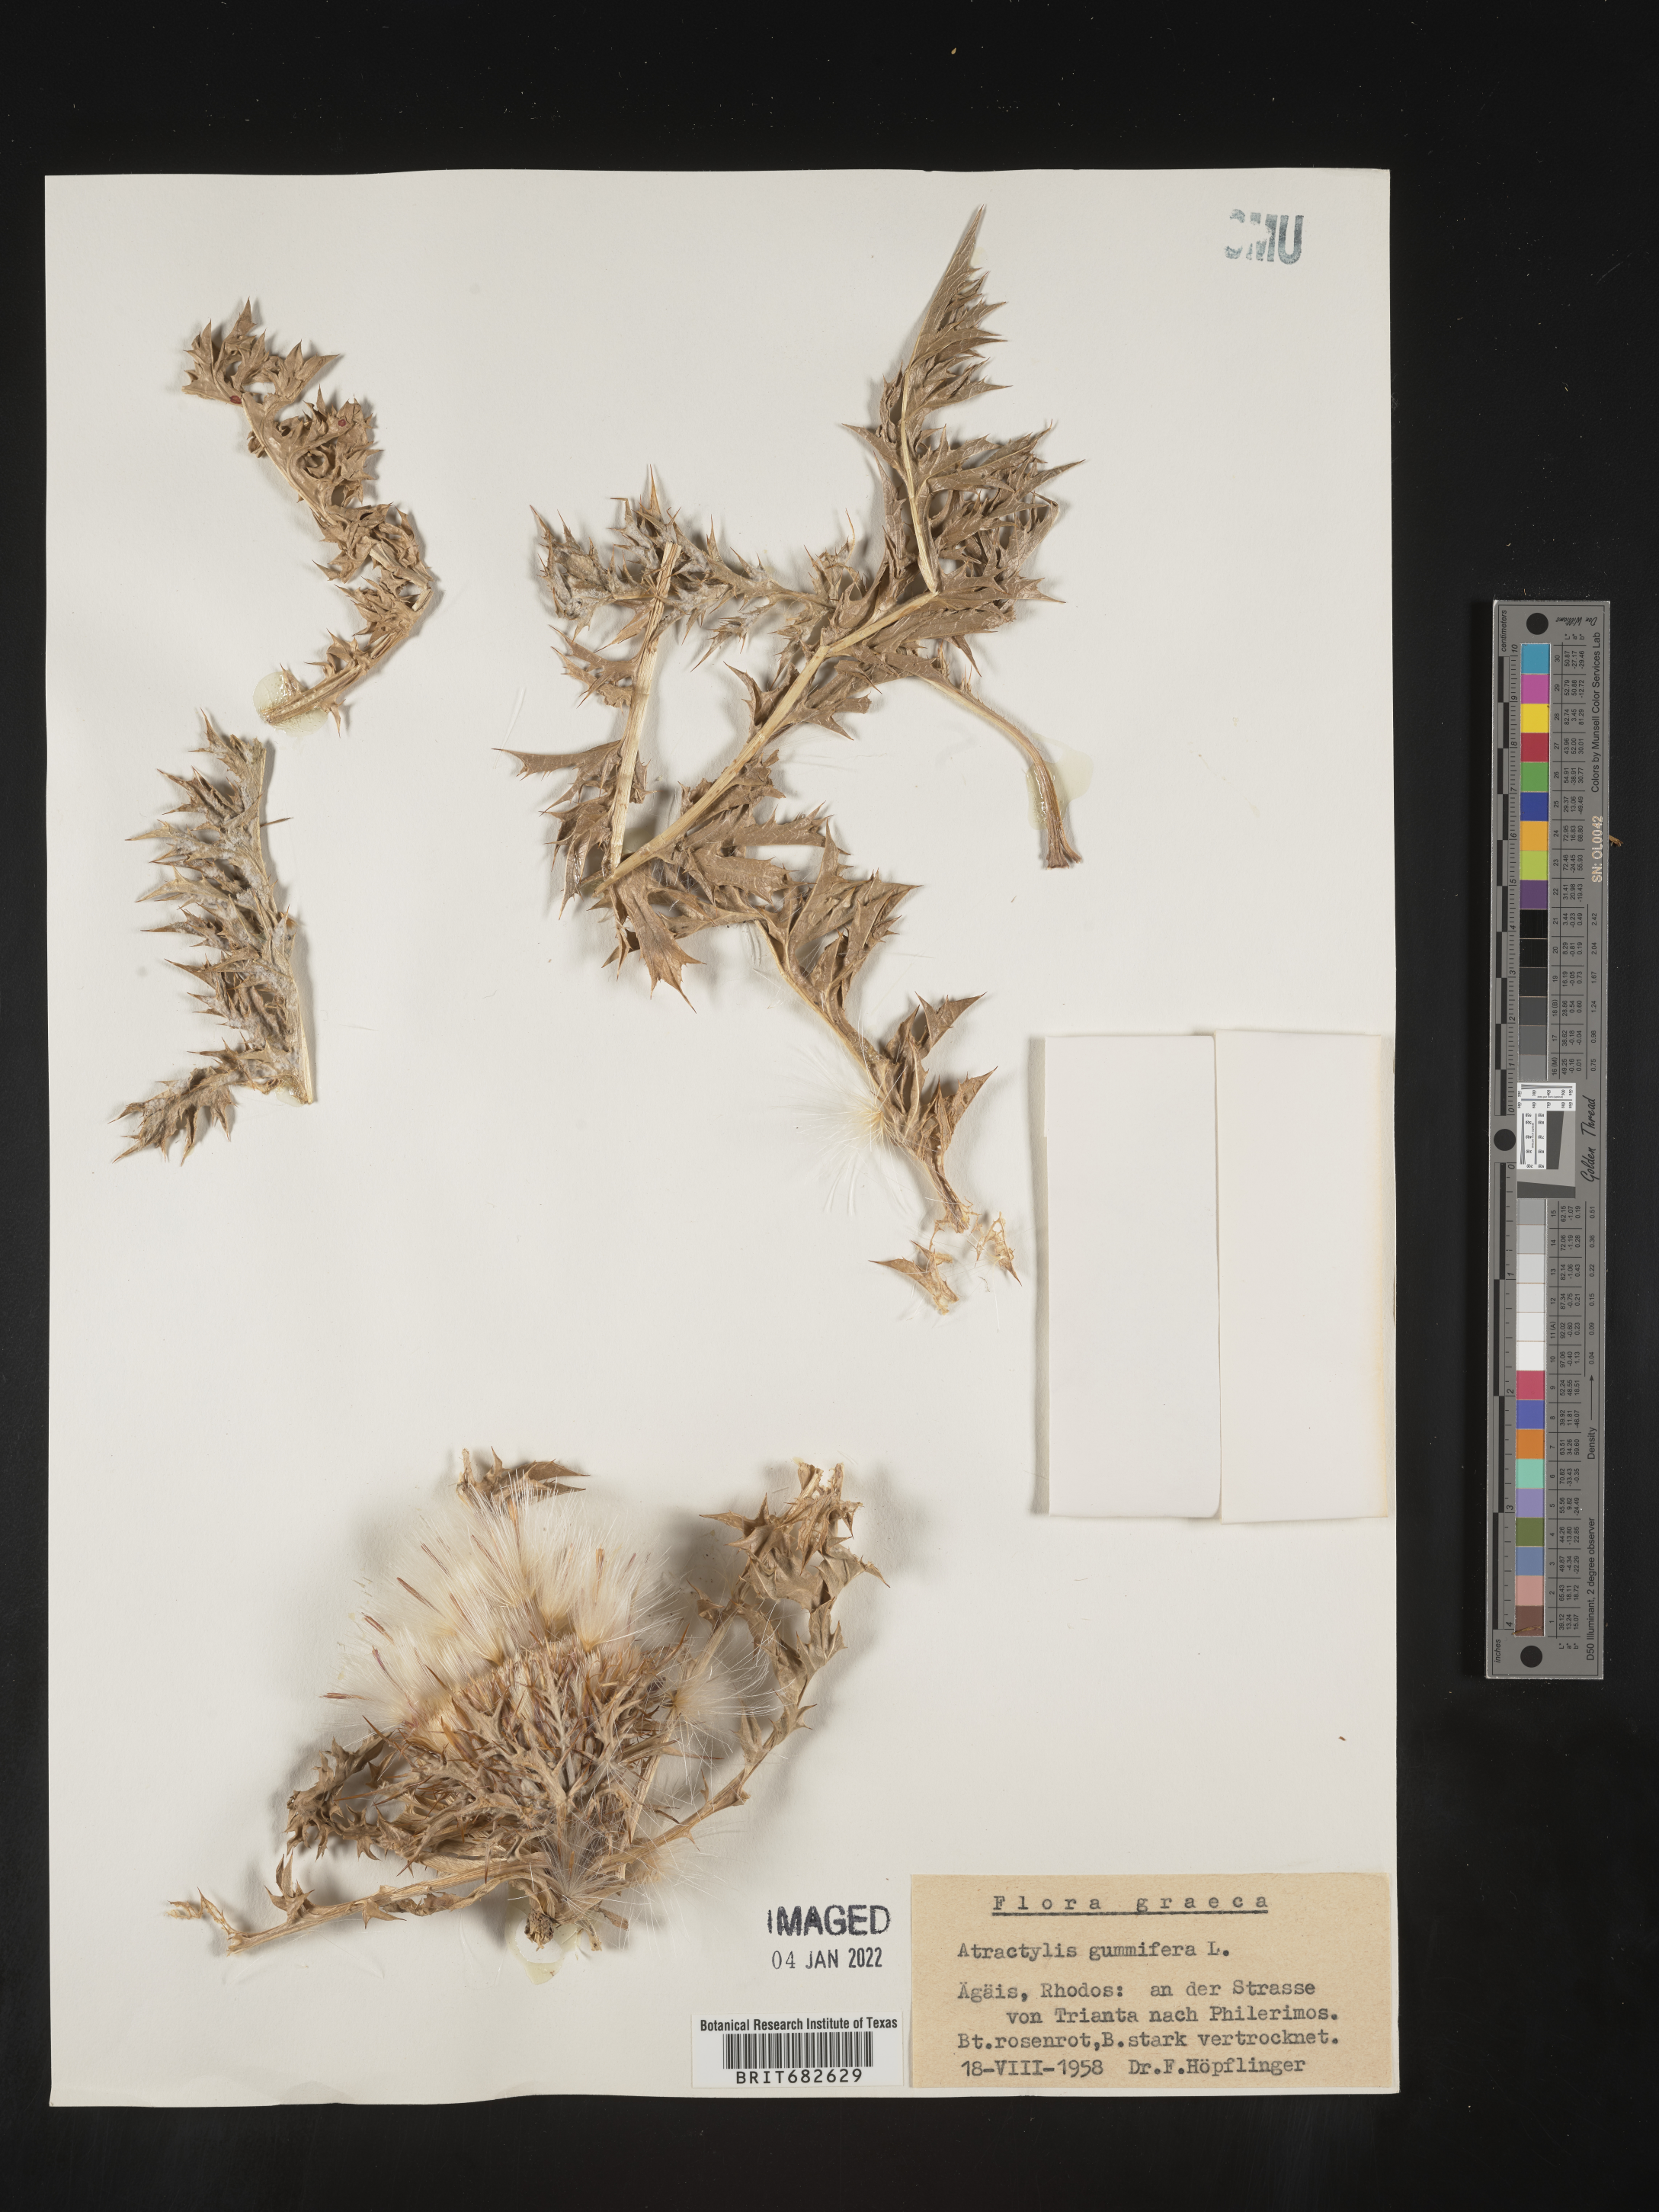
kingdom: Plantae
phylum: Tracheophyta
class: Magnoliopsida
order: Asterales
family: Asteraceae
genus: Atractylis
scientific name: Atractylis
